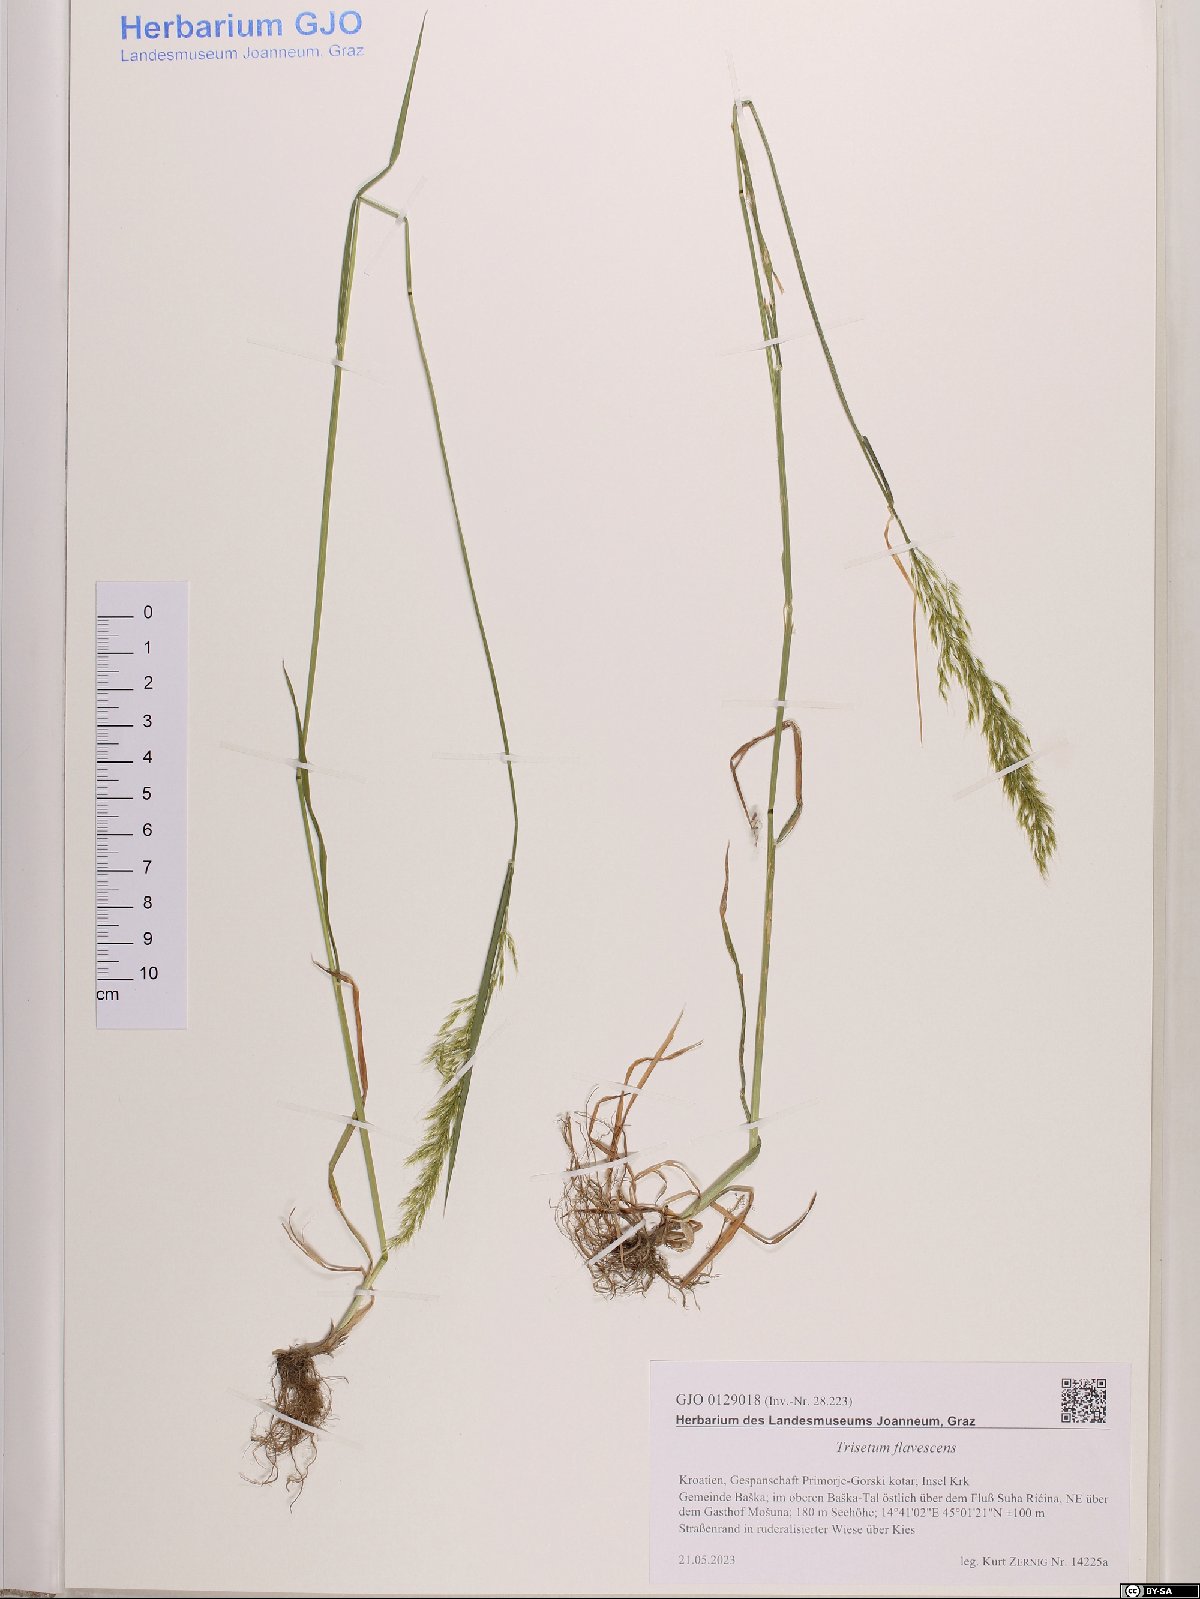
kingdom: Plantae
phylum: Tracheophyta
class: Liliopsida
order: Poales
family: Poaceae
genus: Trisetum
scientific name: Trisetum flavescens
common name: Yellow oat-grass
